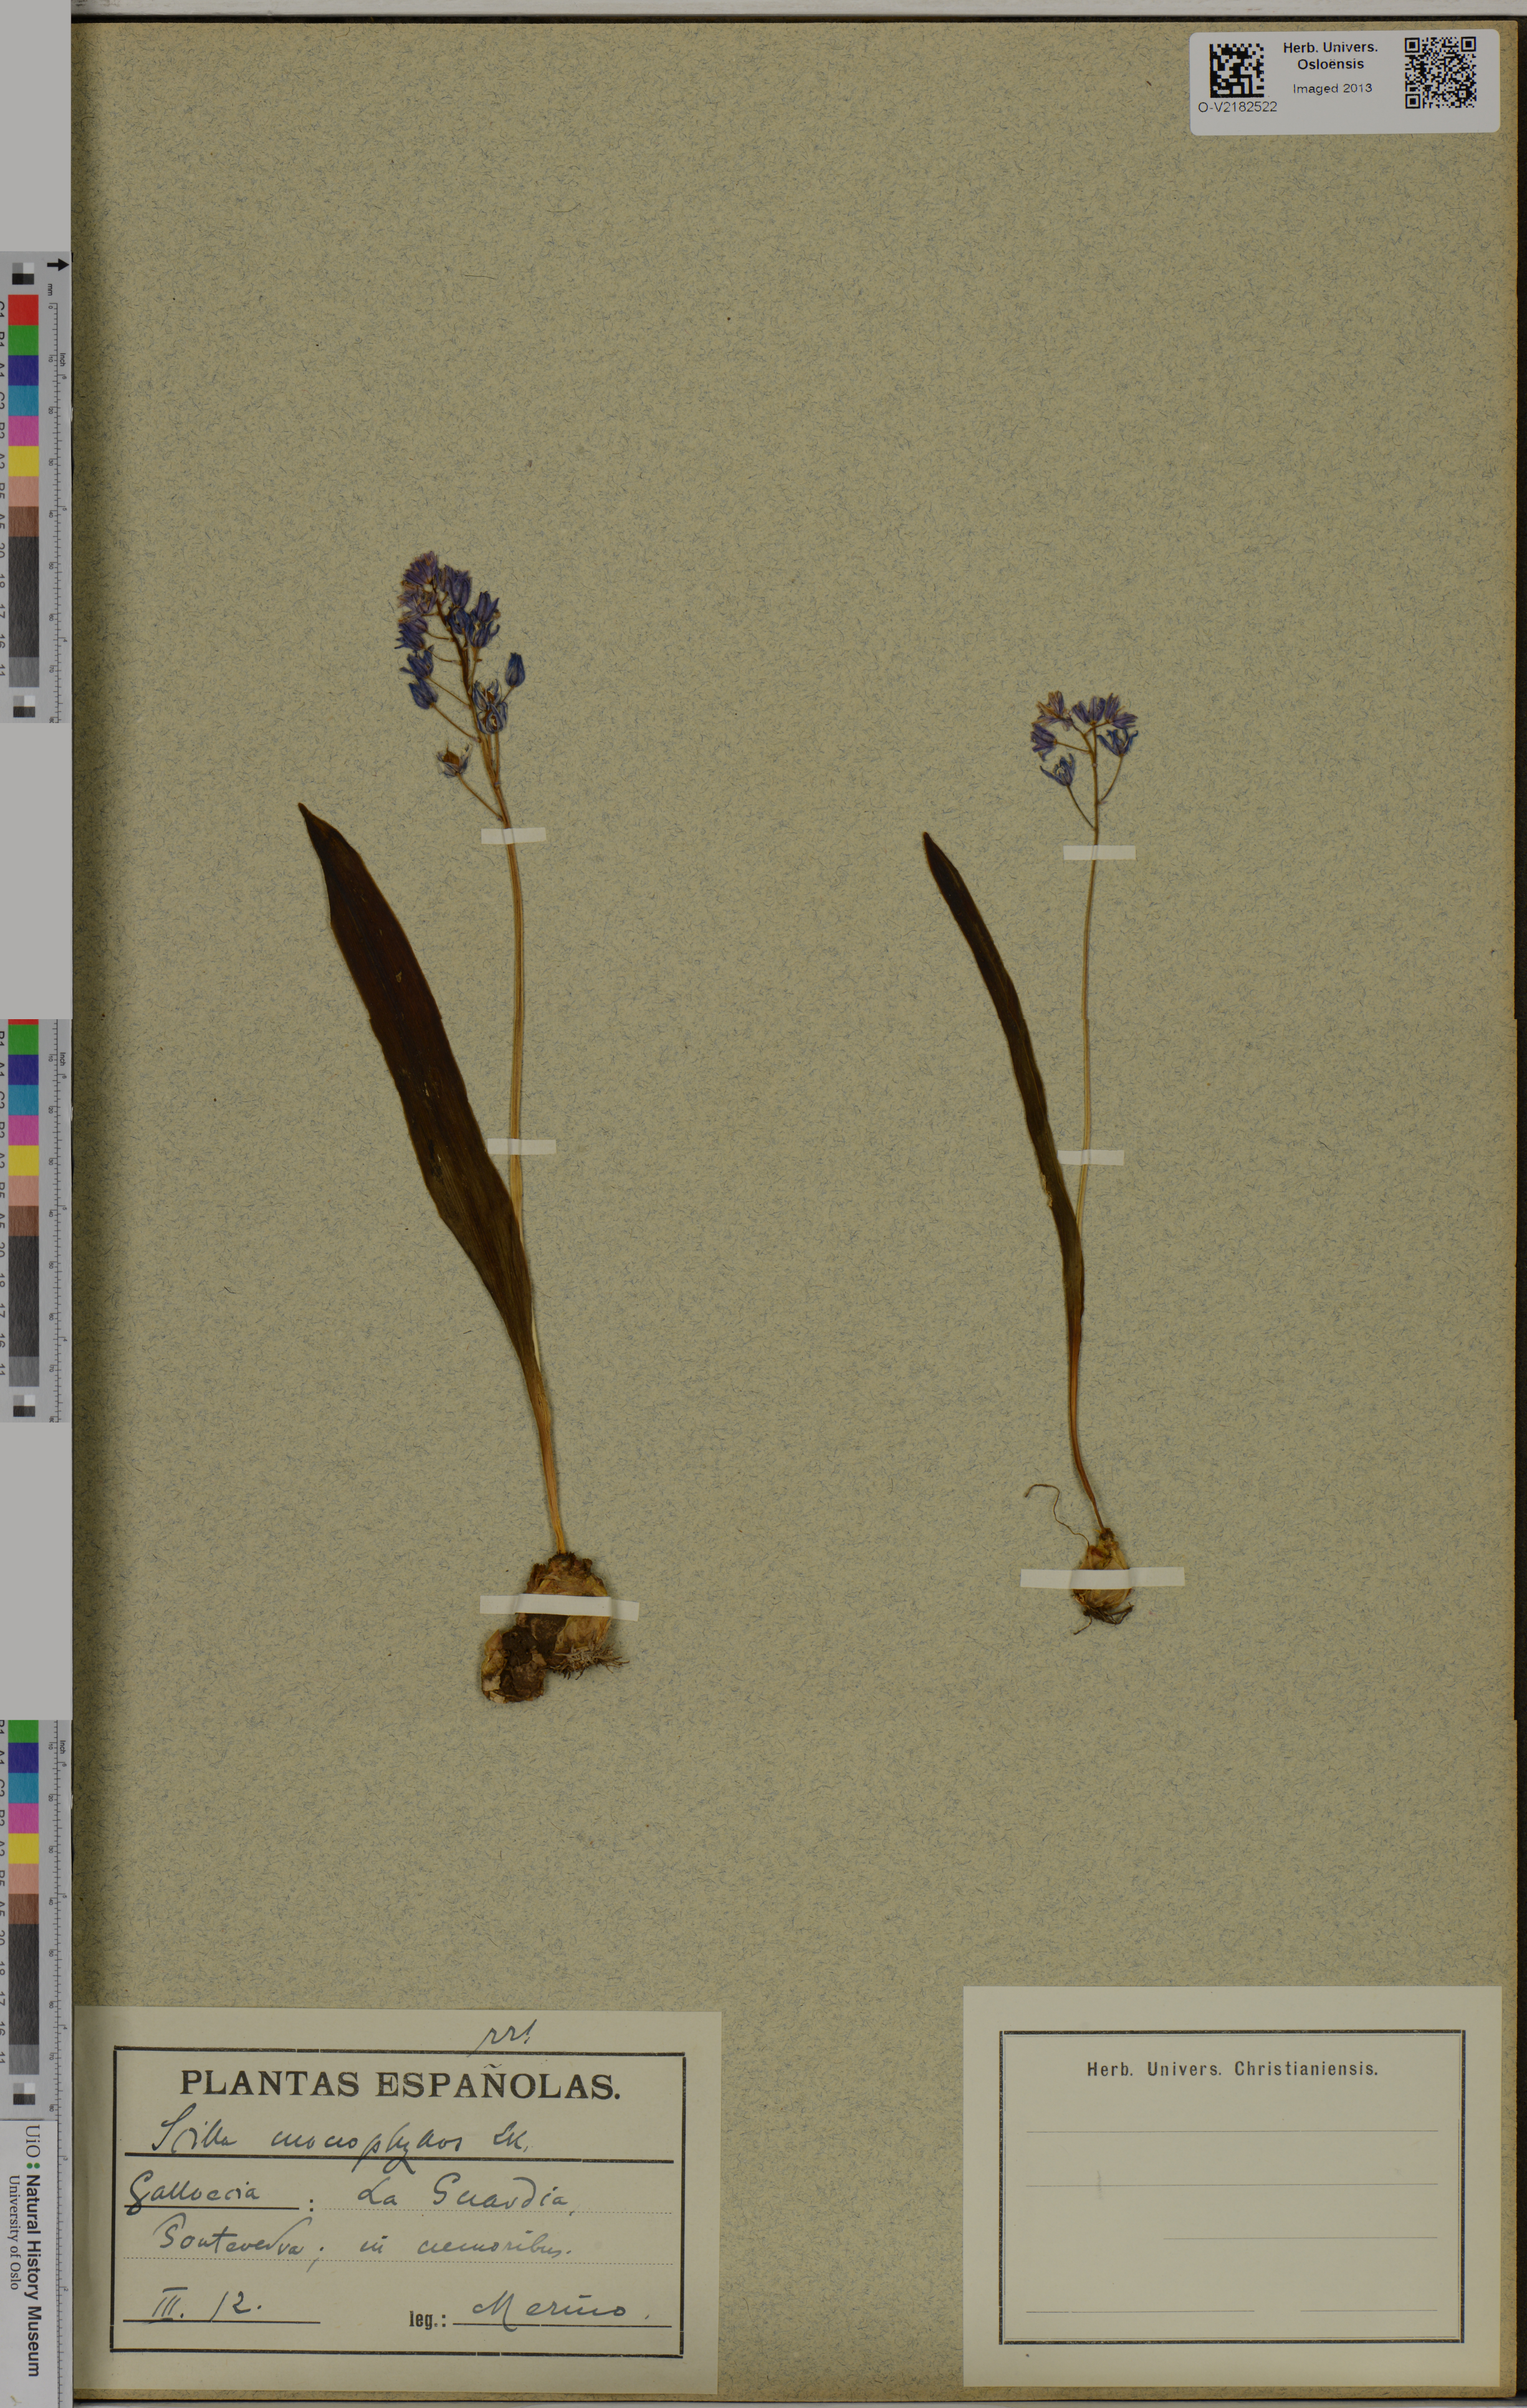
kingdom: Plantae
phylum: Tracheophyta
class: Liliopsida
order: Asparagales
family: Asparagaceae
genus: Scilla
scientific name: Scilla monophyllos
